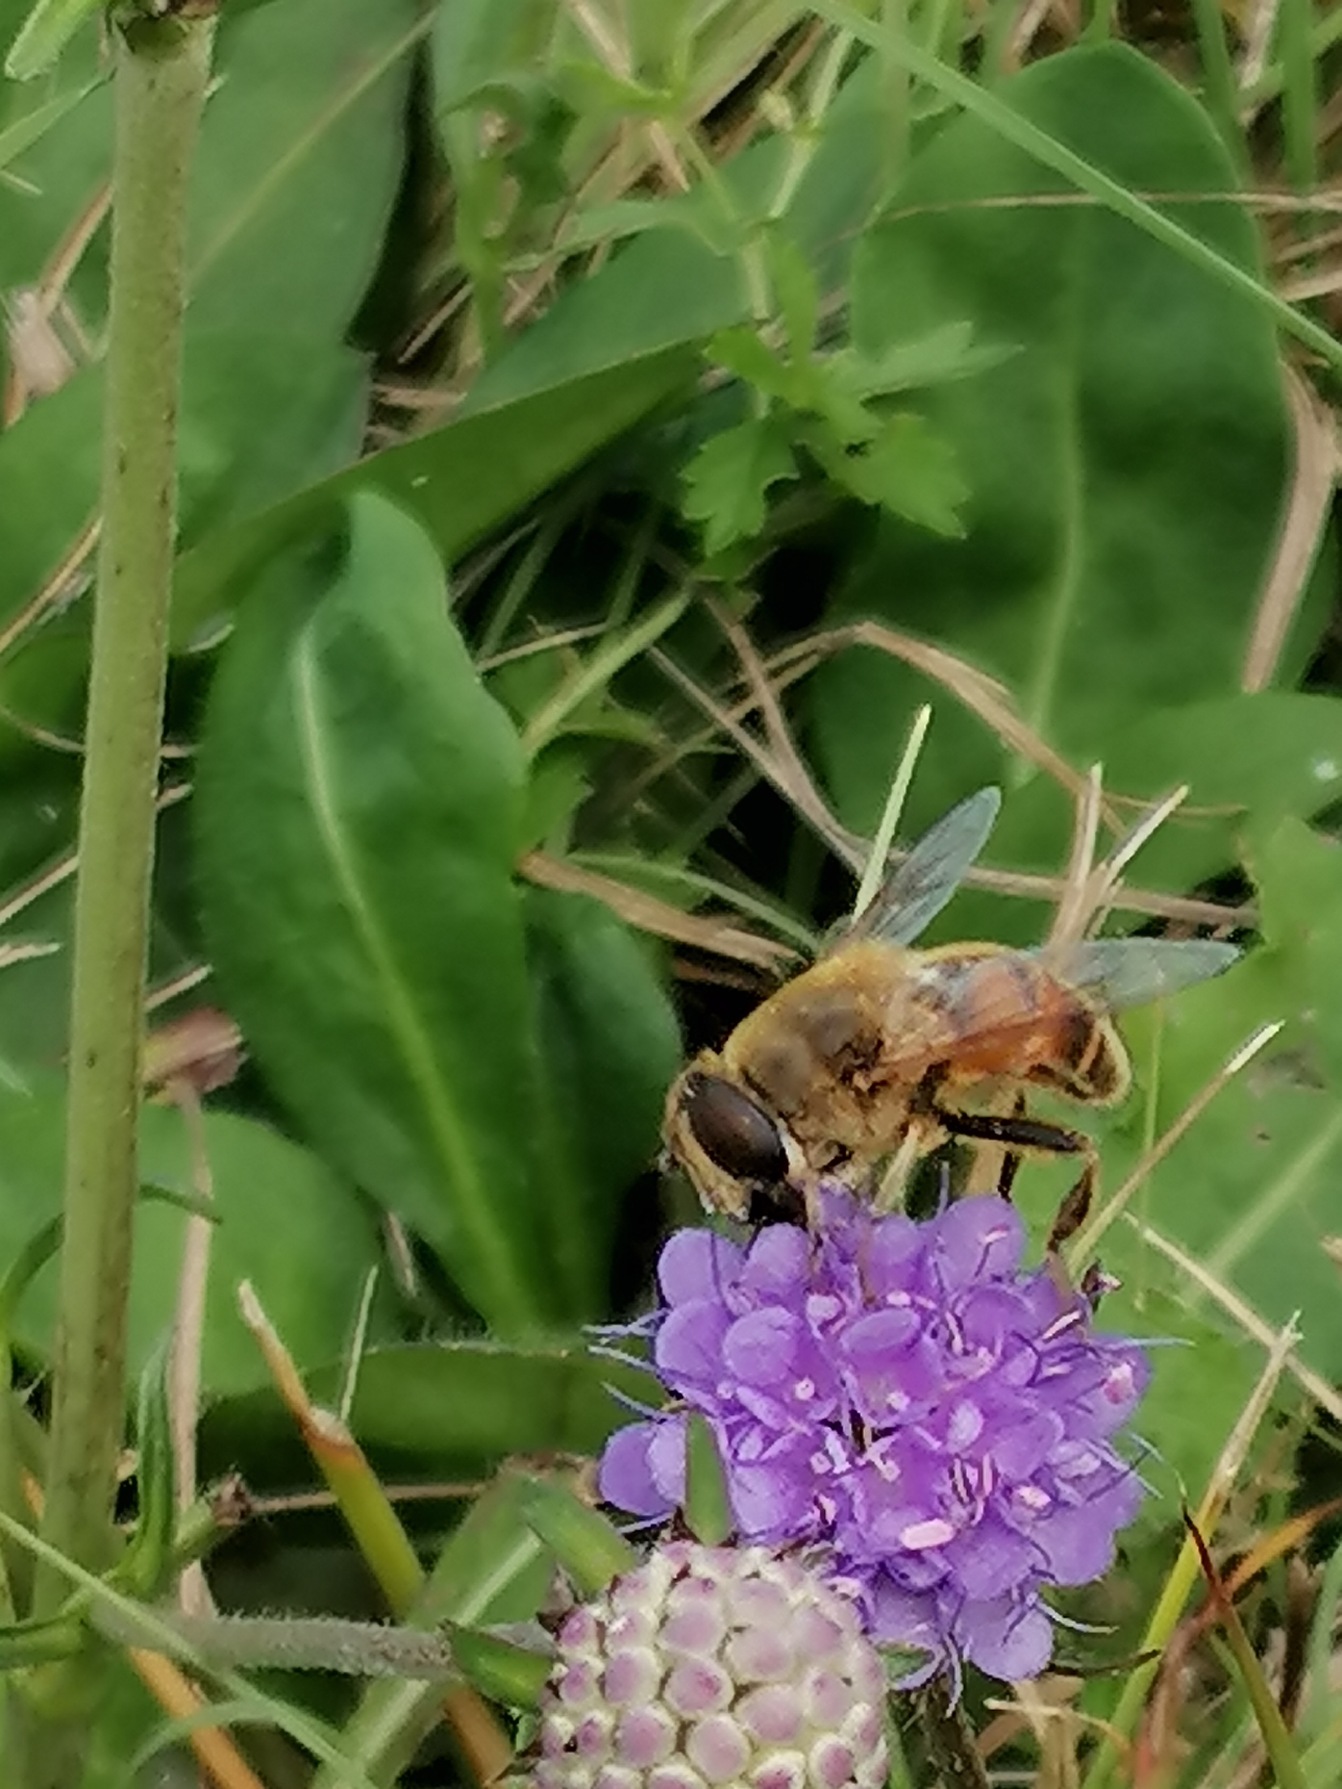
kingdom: Animalia
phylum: Arthropoda
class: Insecta
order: Diptera
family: Syrphidae
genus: Eristalis
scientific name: Eristalis tenax
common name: Droneflue
